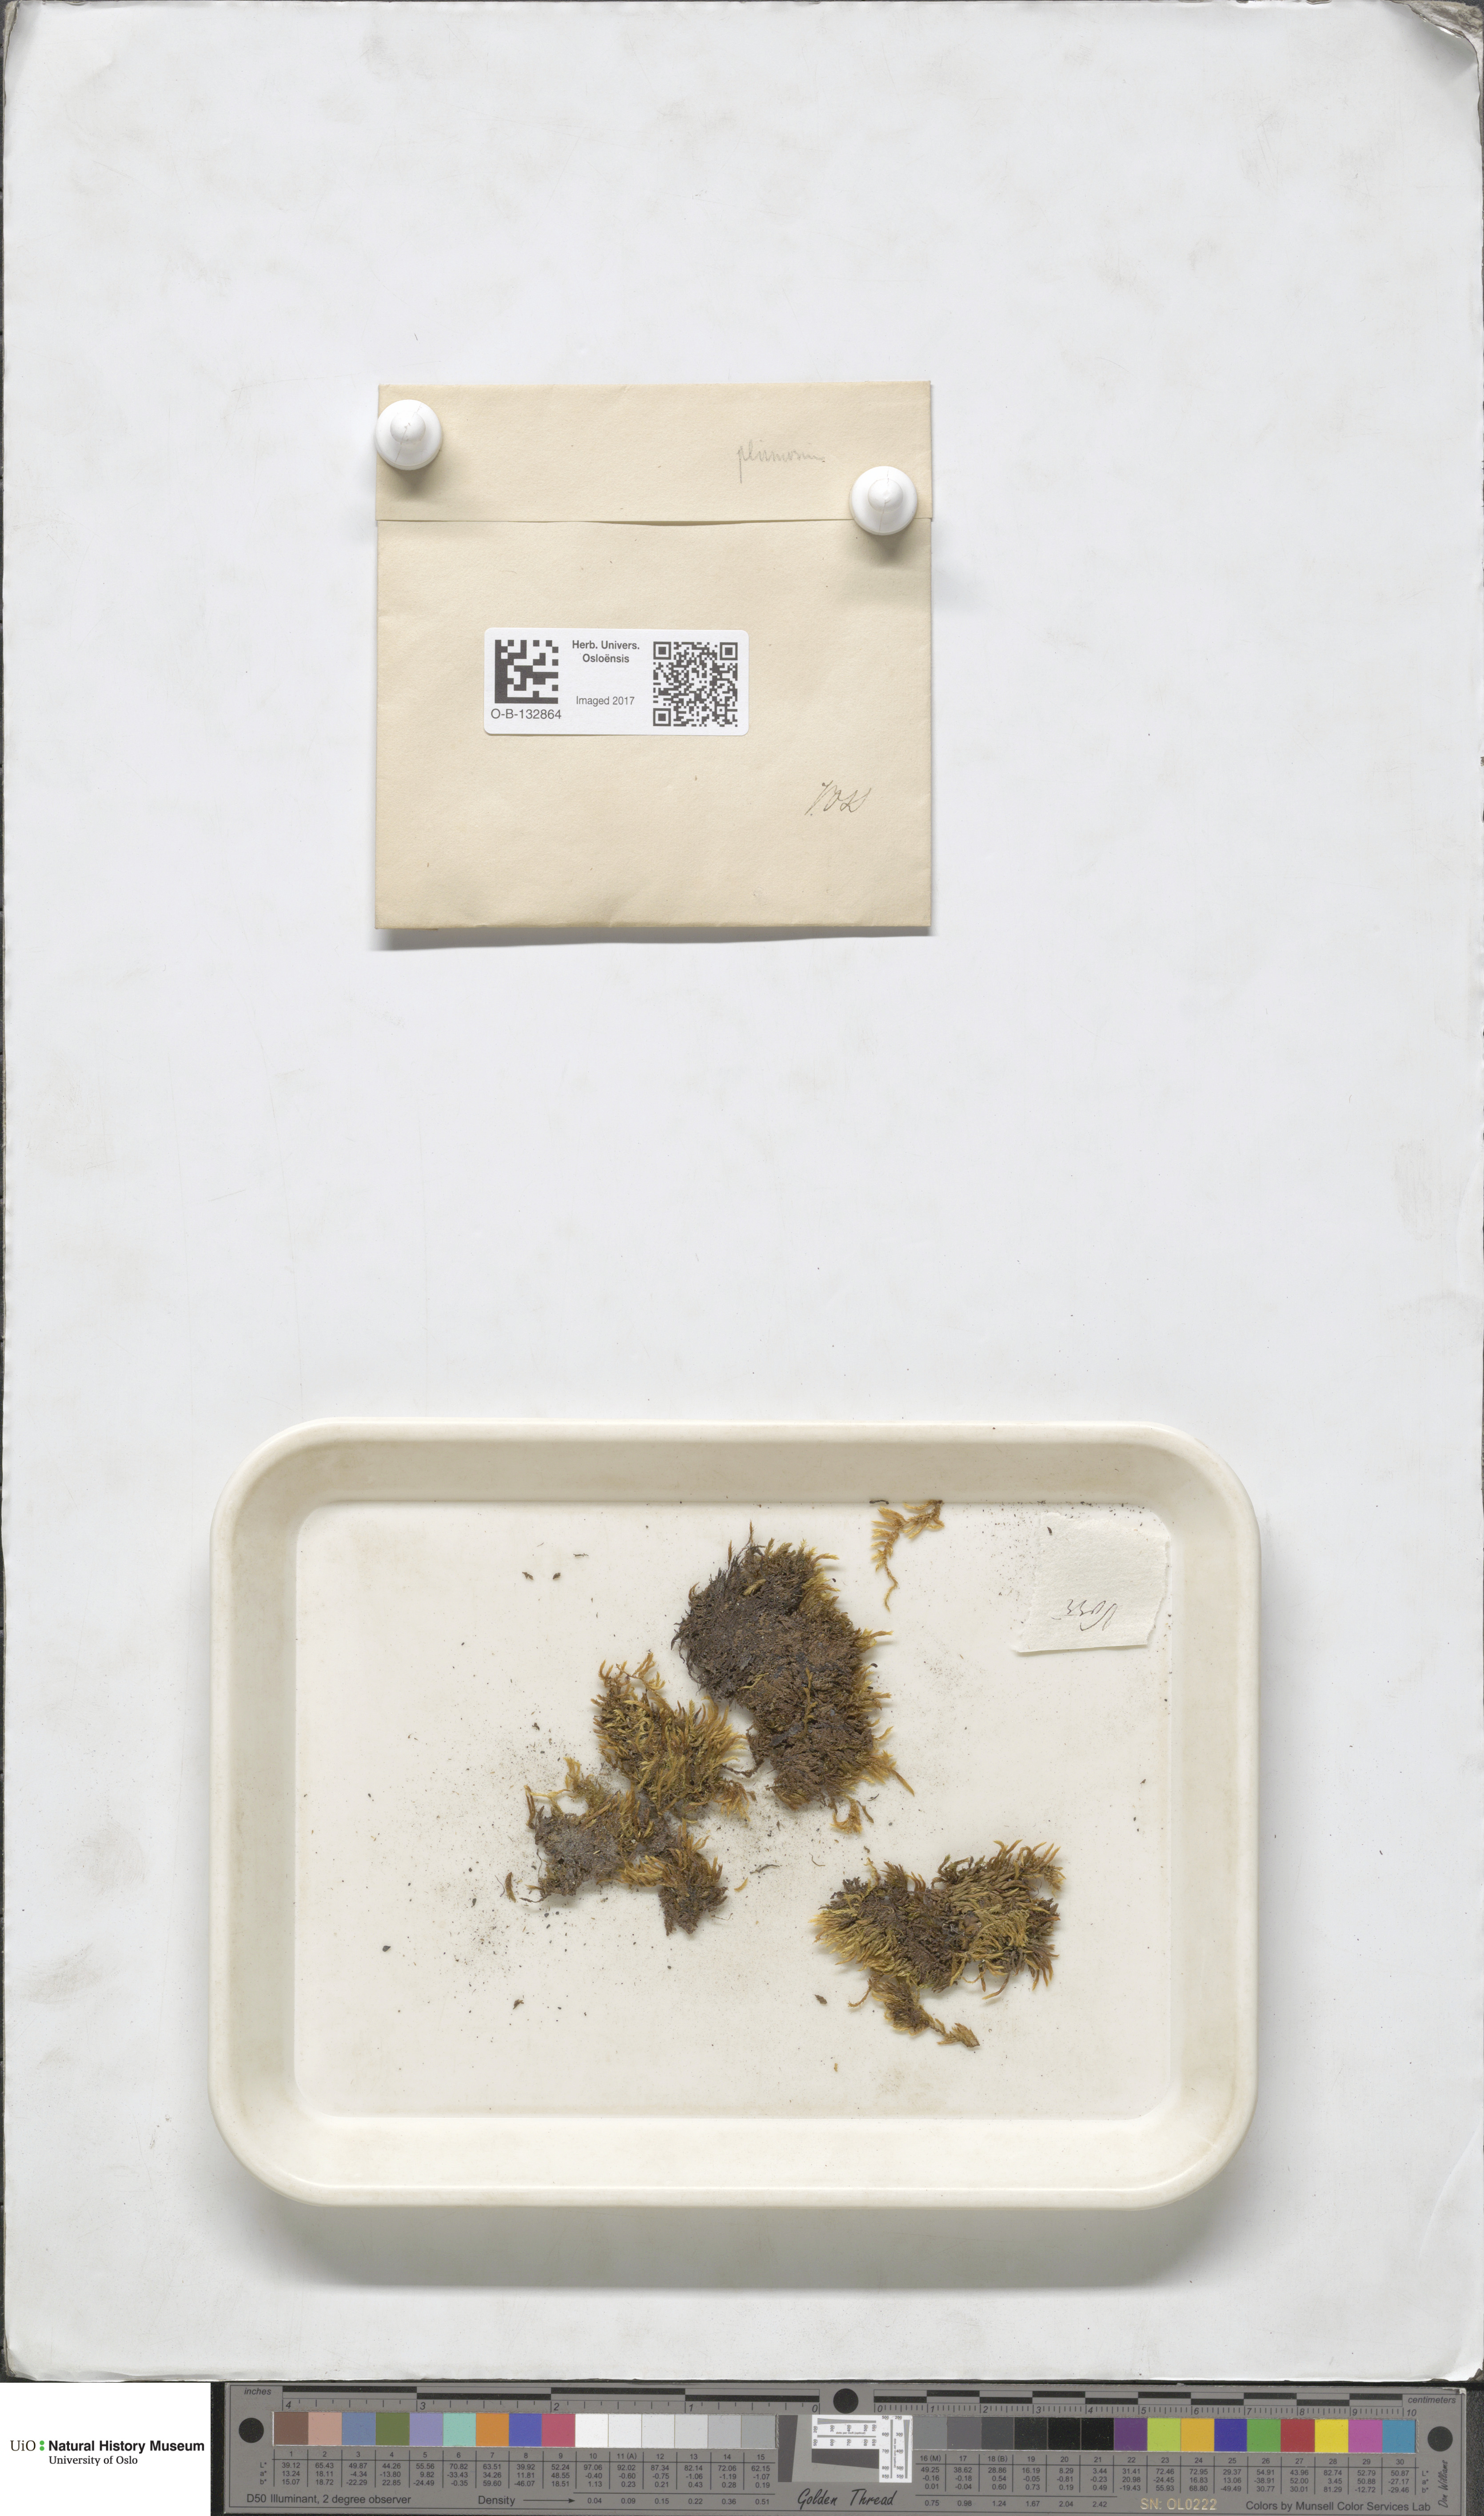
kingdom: Plantae
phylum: Bryophyta
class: Bryopsida
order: Hypnales
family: Brachytheciaceae
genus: Sciuro-hypnum
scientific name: Sciuro-hypnum plumosum
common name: Rusty feather-moss
